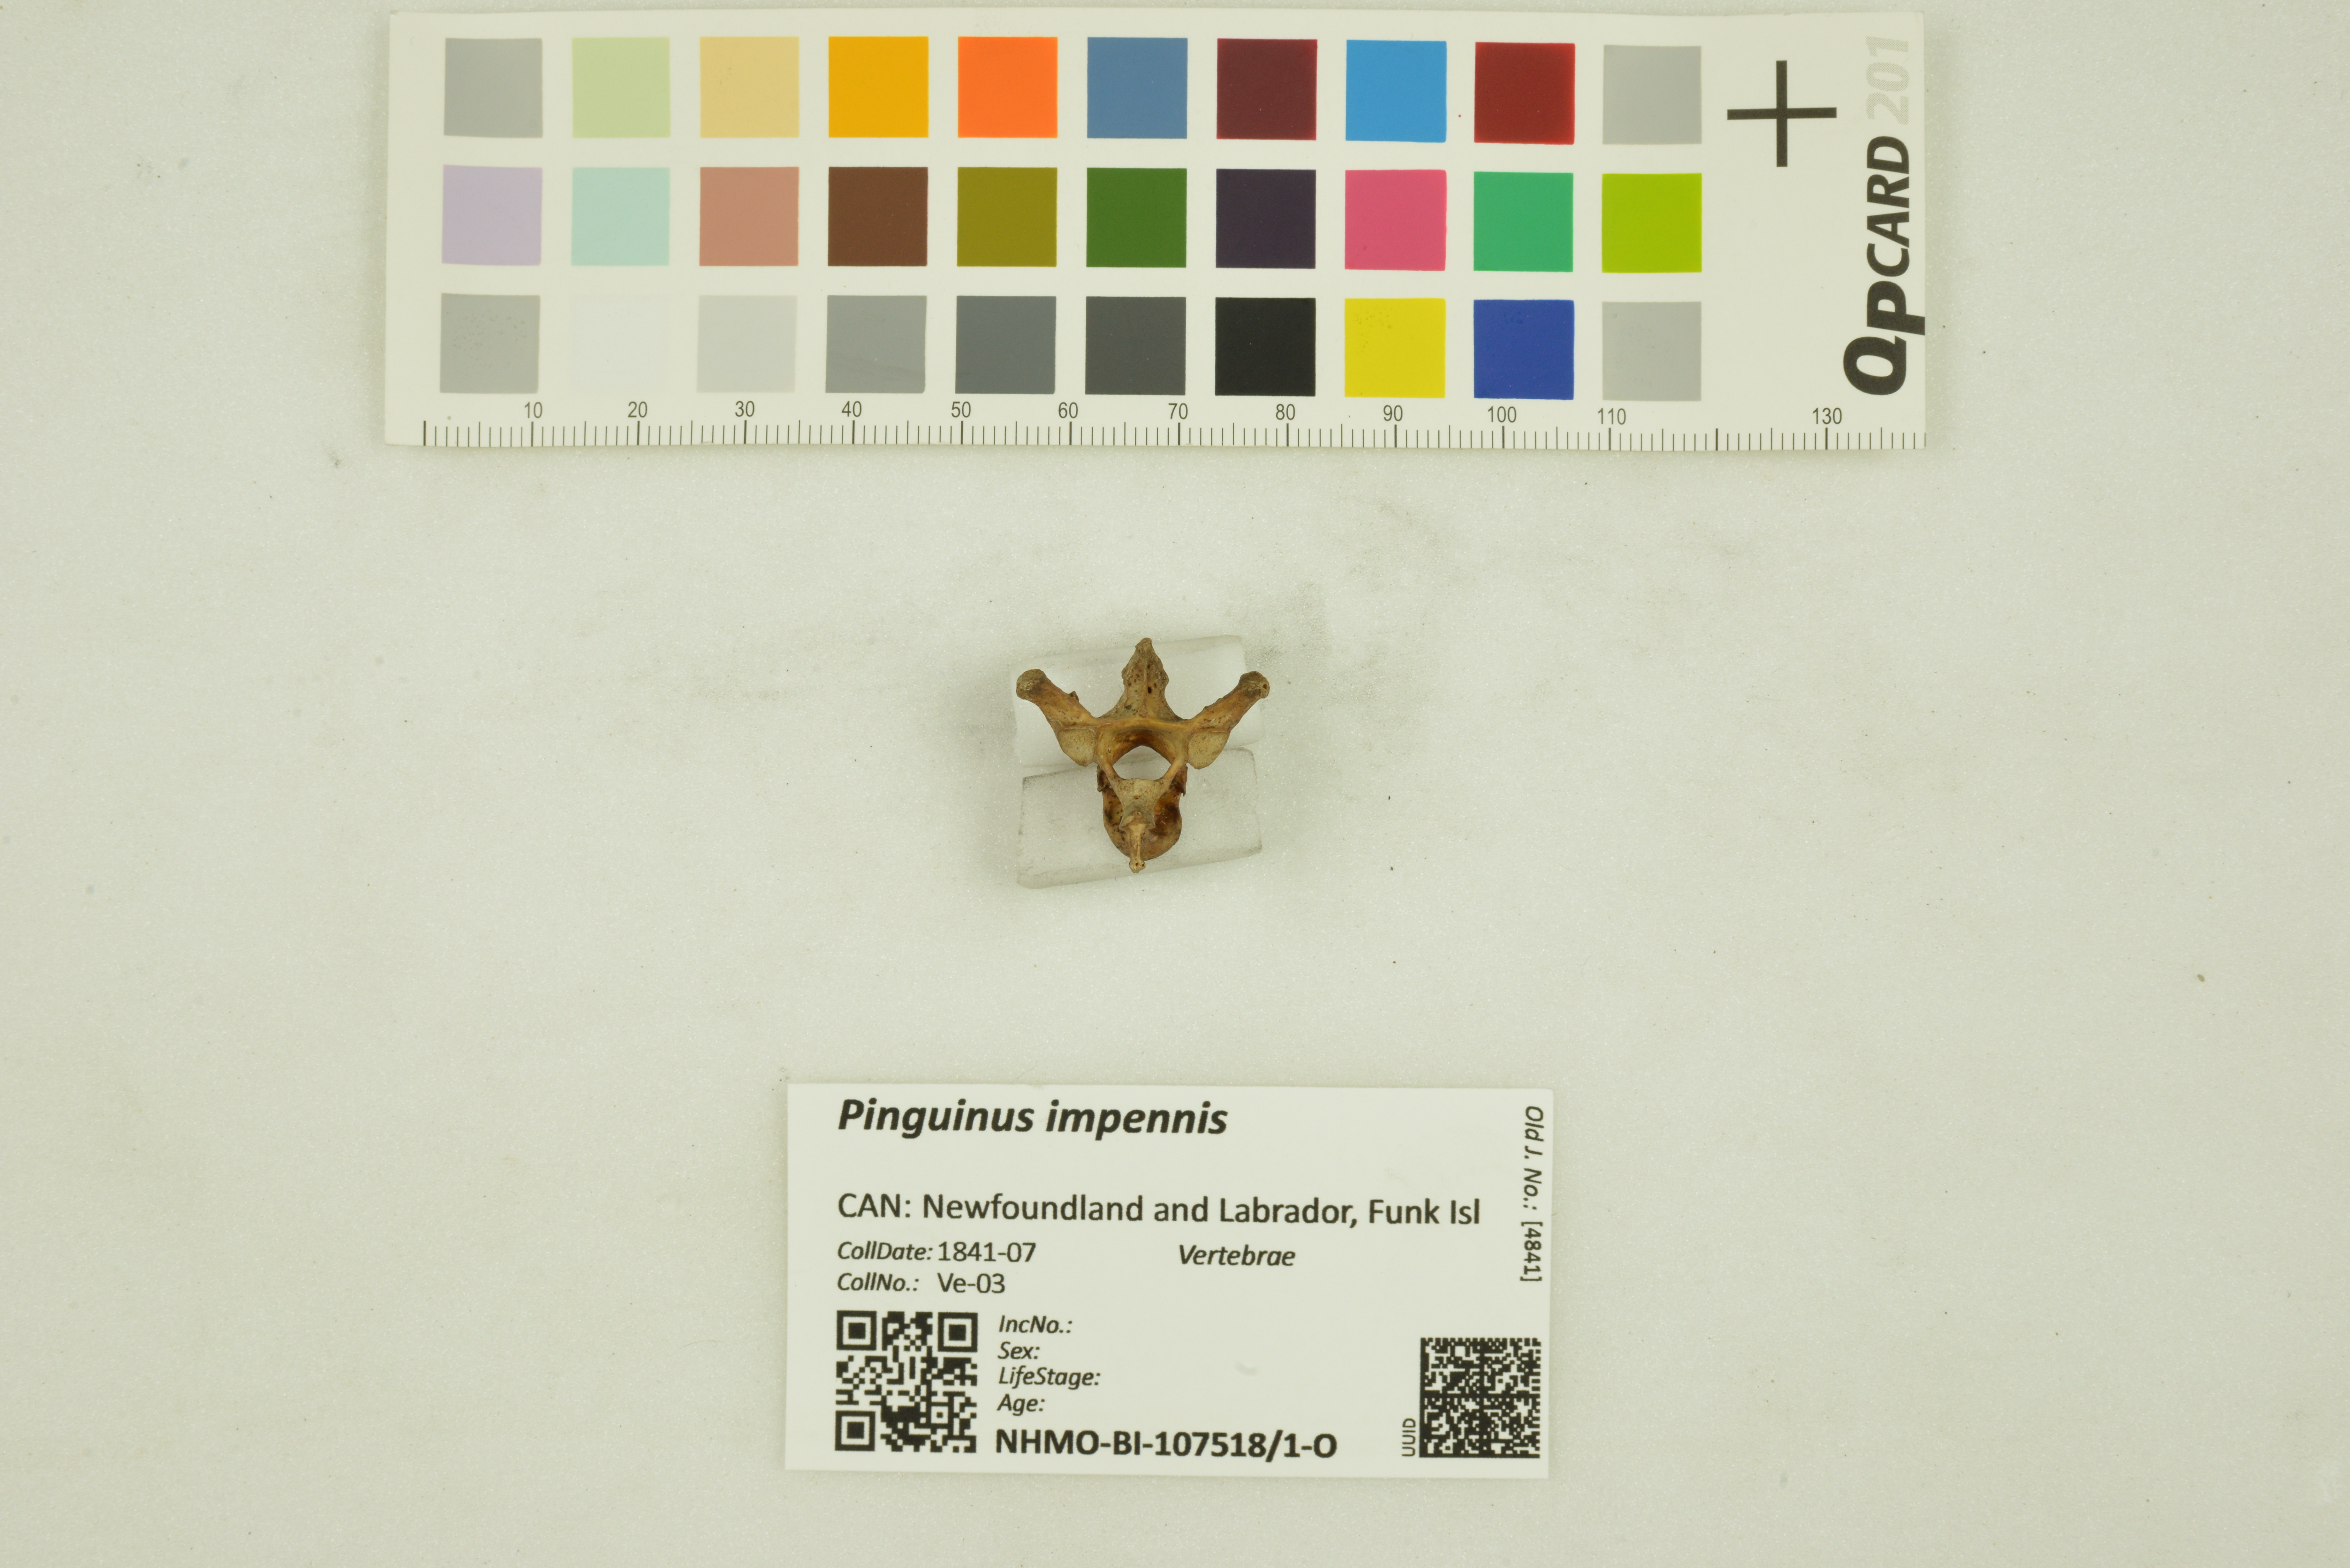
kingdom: Animalia
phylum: Chordata
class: Aves
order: Charadriiformes
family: Alcidae
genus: Pinguinus
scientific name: Pinguinus impennis
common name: Great auk
